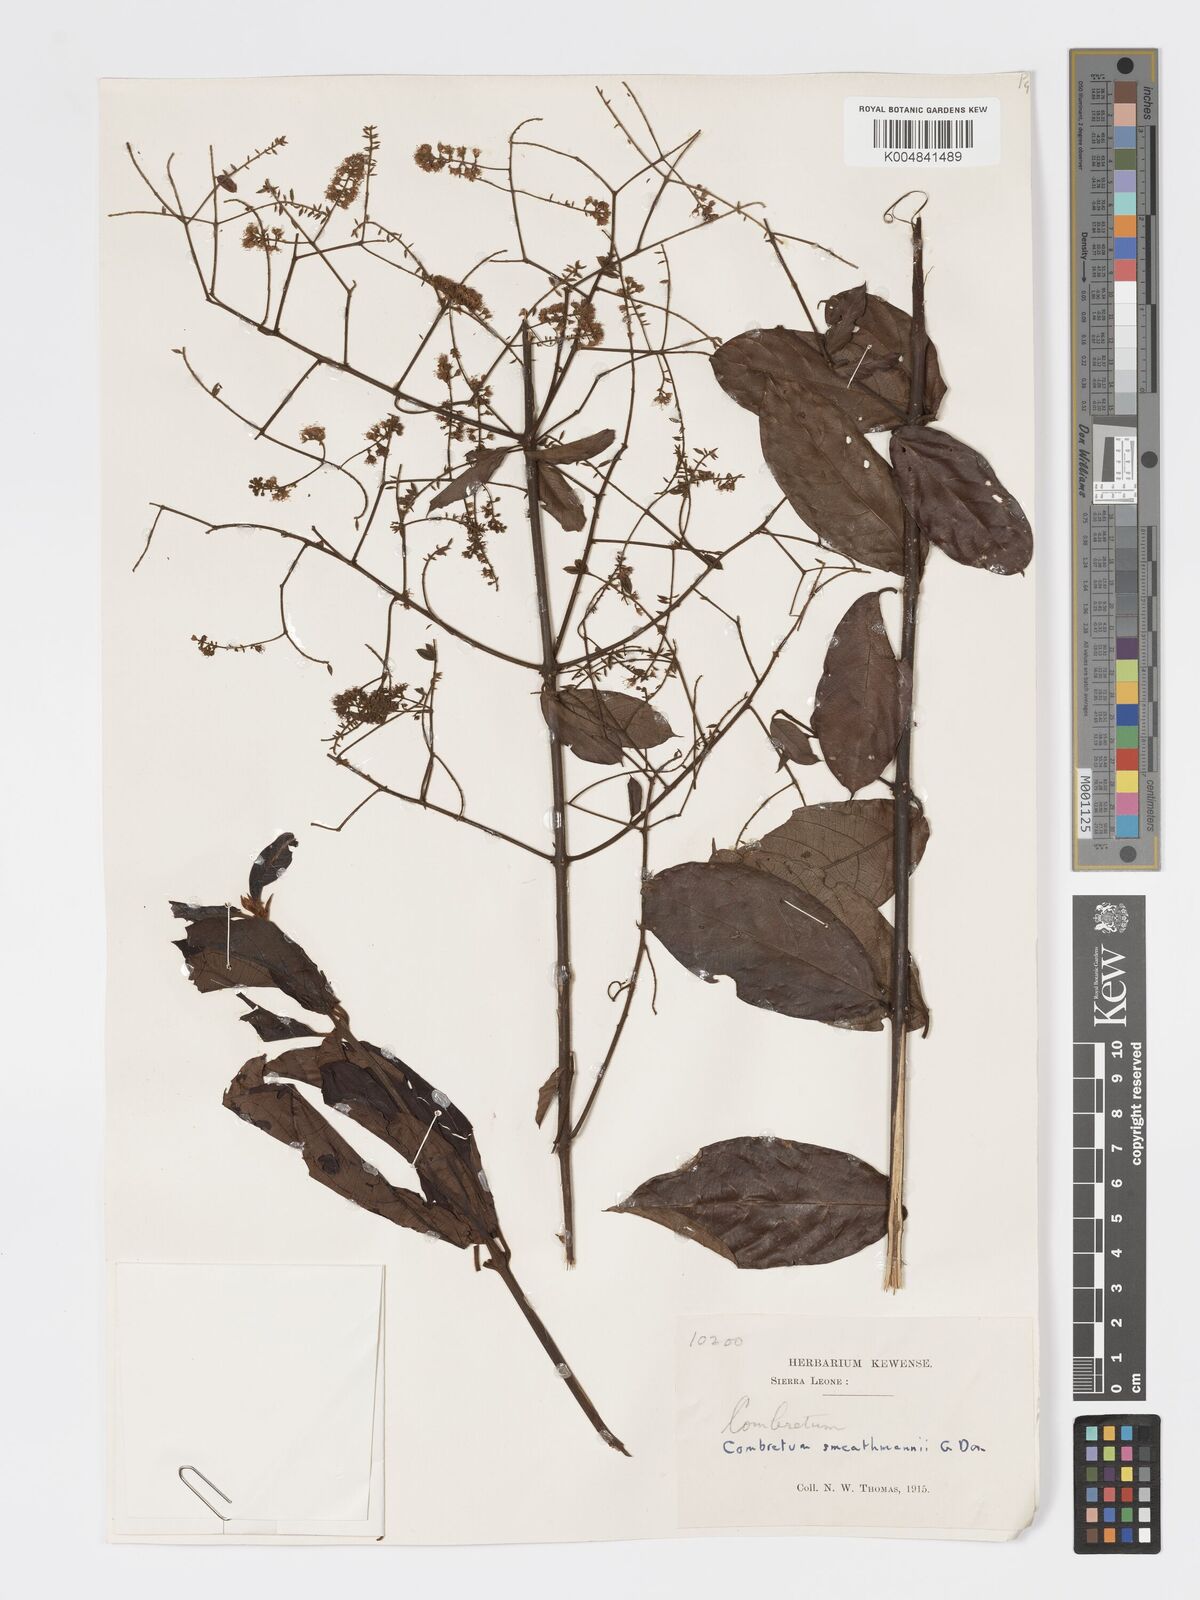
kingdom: Plantae
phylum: Tracheophyta
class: Magnoliopsida
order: Myrtales
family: Combretaceae
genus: Combretum
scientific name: Combretum mucronatum
